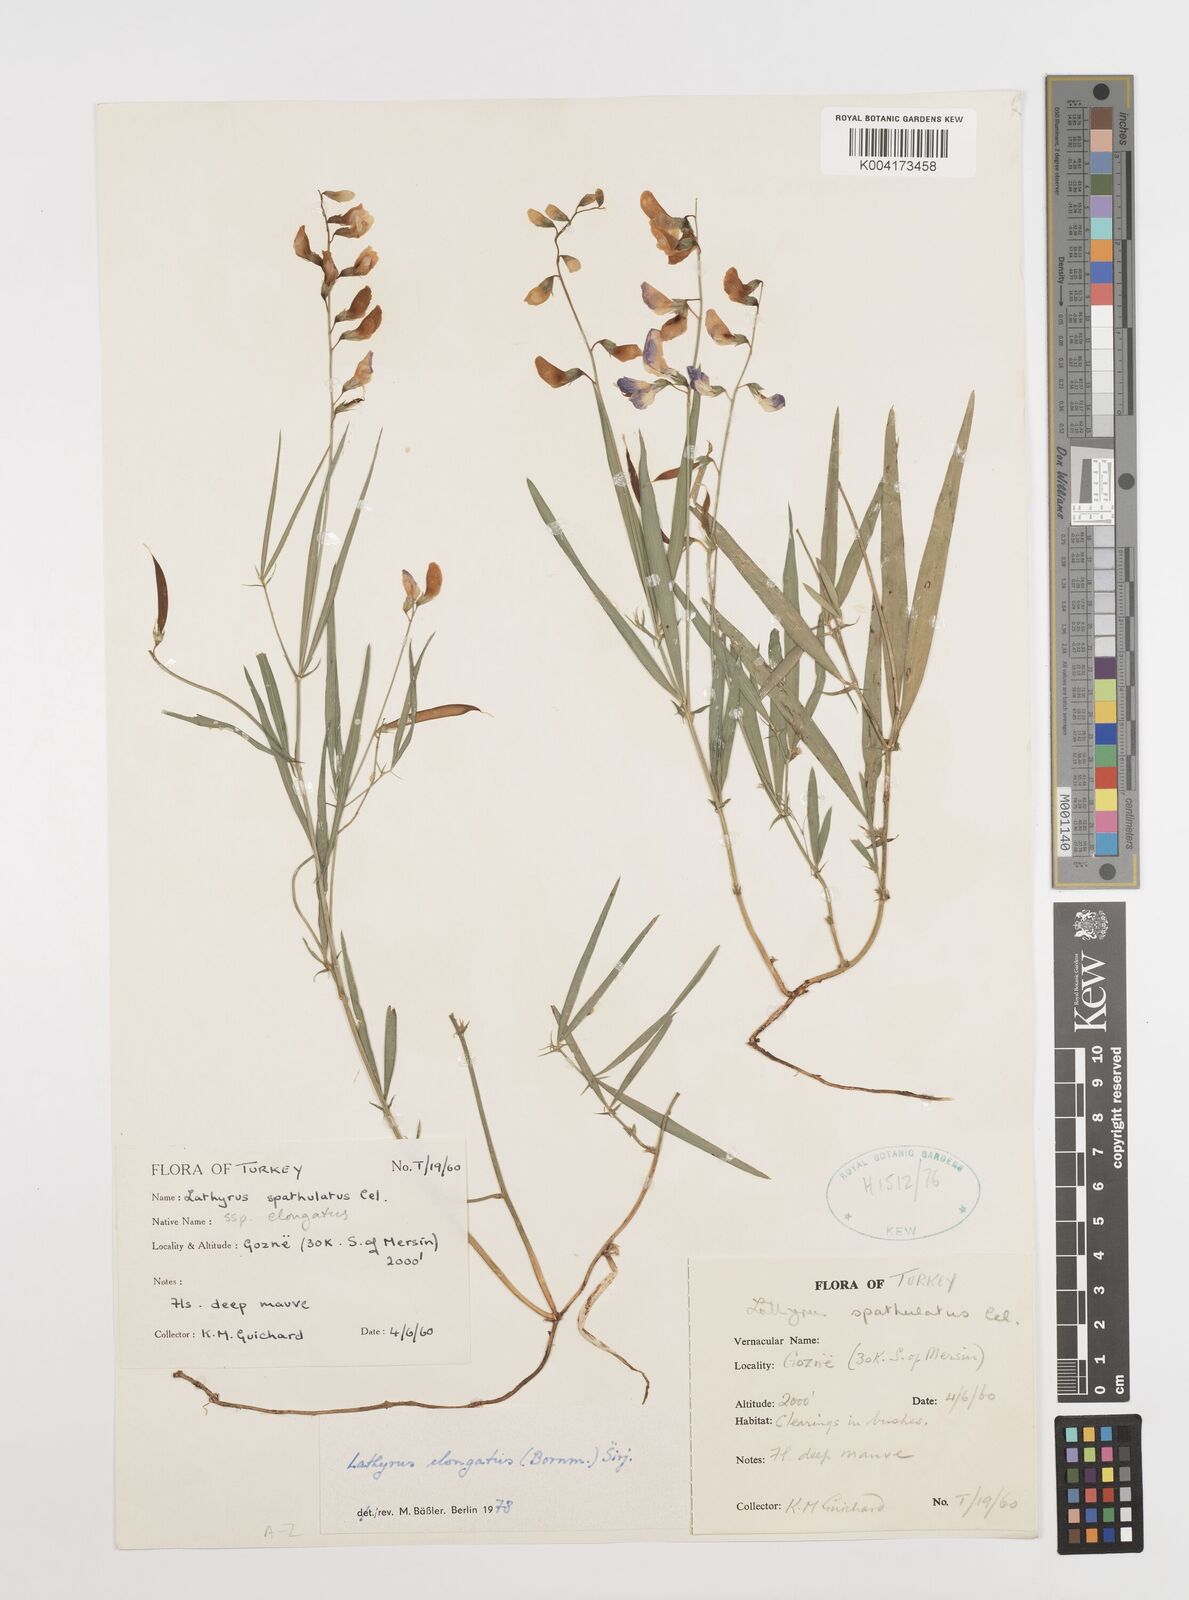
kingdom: Plantae
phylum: Tracheophyta
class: Magnoliopsida
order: Fabales
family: Fabaceae
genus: Lathyrus
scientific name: Lathyrus elongatus
